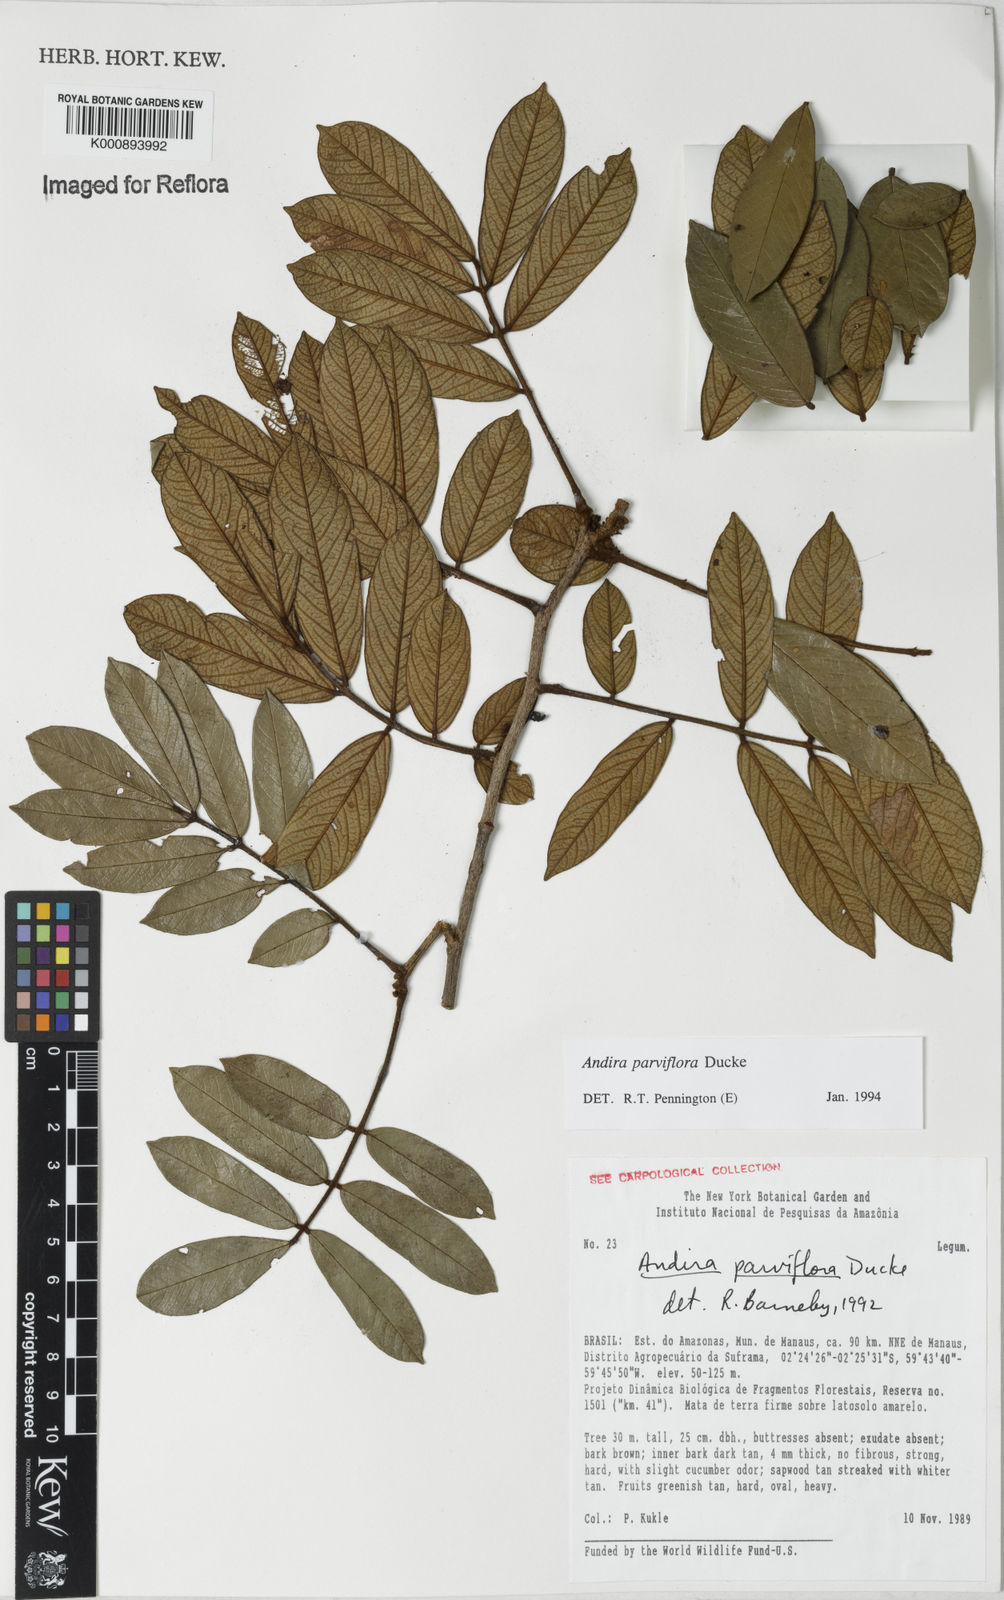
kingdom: Plantae
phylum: Tracheophyta
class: Magnoliopsida
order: Fabales
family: Fabaceae
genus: Andira
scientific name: Andira parviflora
